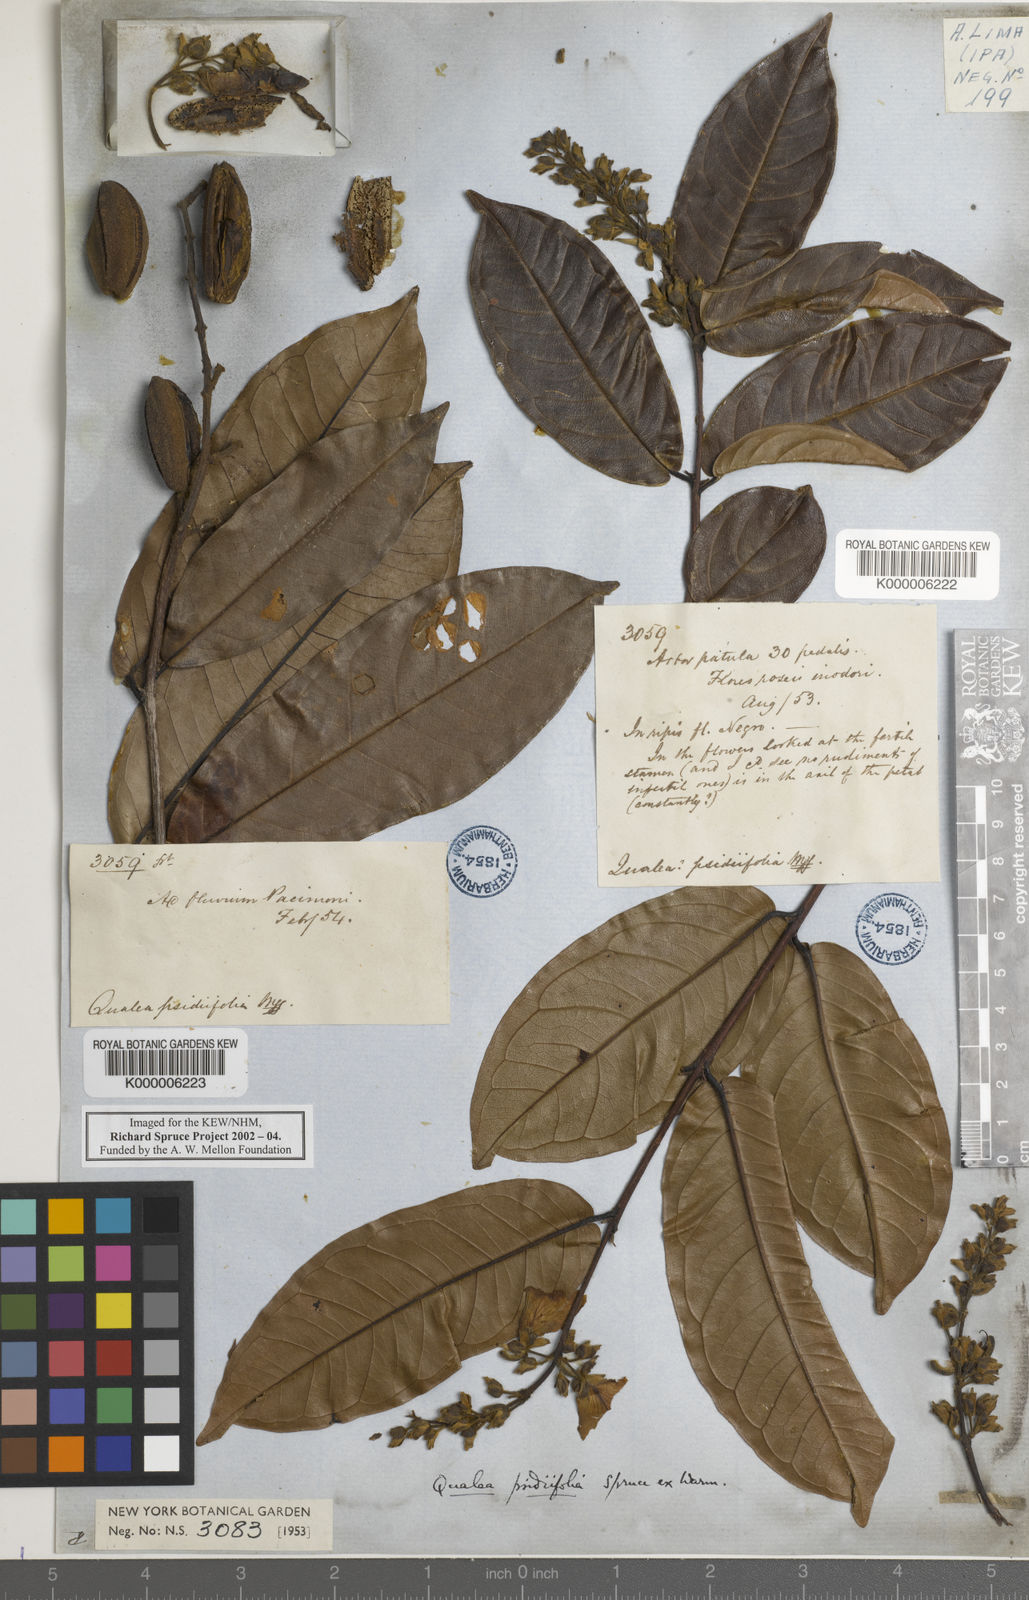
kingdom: Plantae
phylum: Tracheophyta
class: Magnoliopsida
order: Myrtales
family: Vochysiaceae
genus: Qualea
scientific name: Qualea psidiifolia
